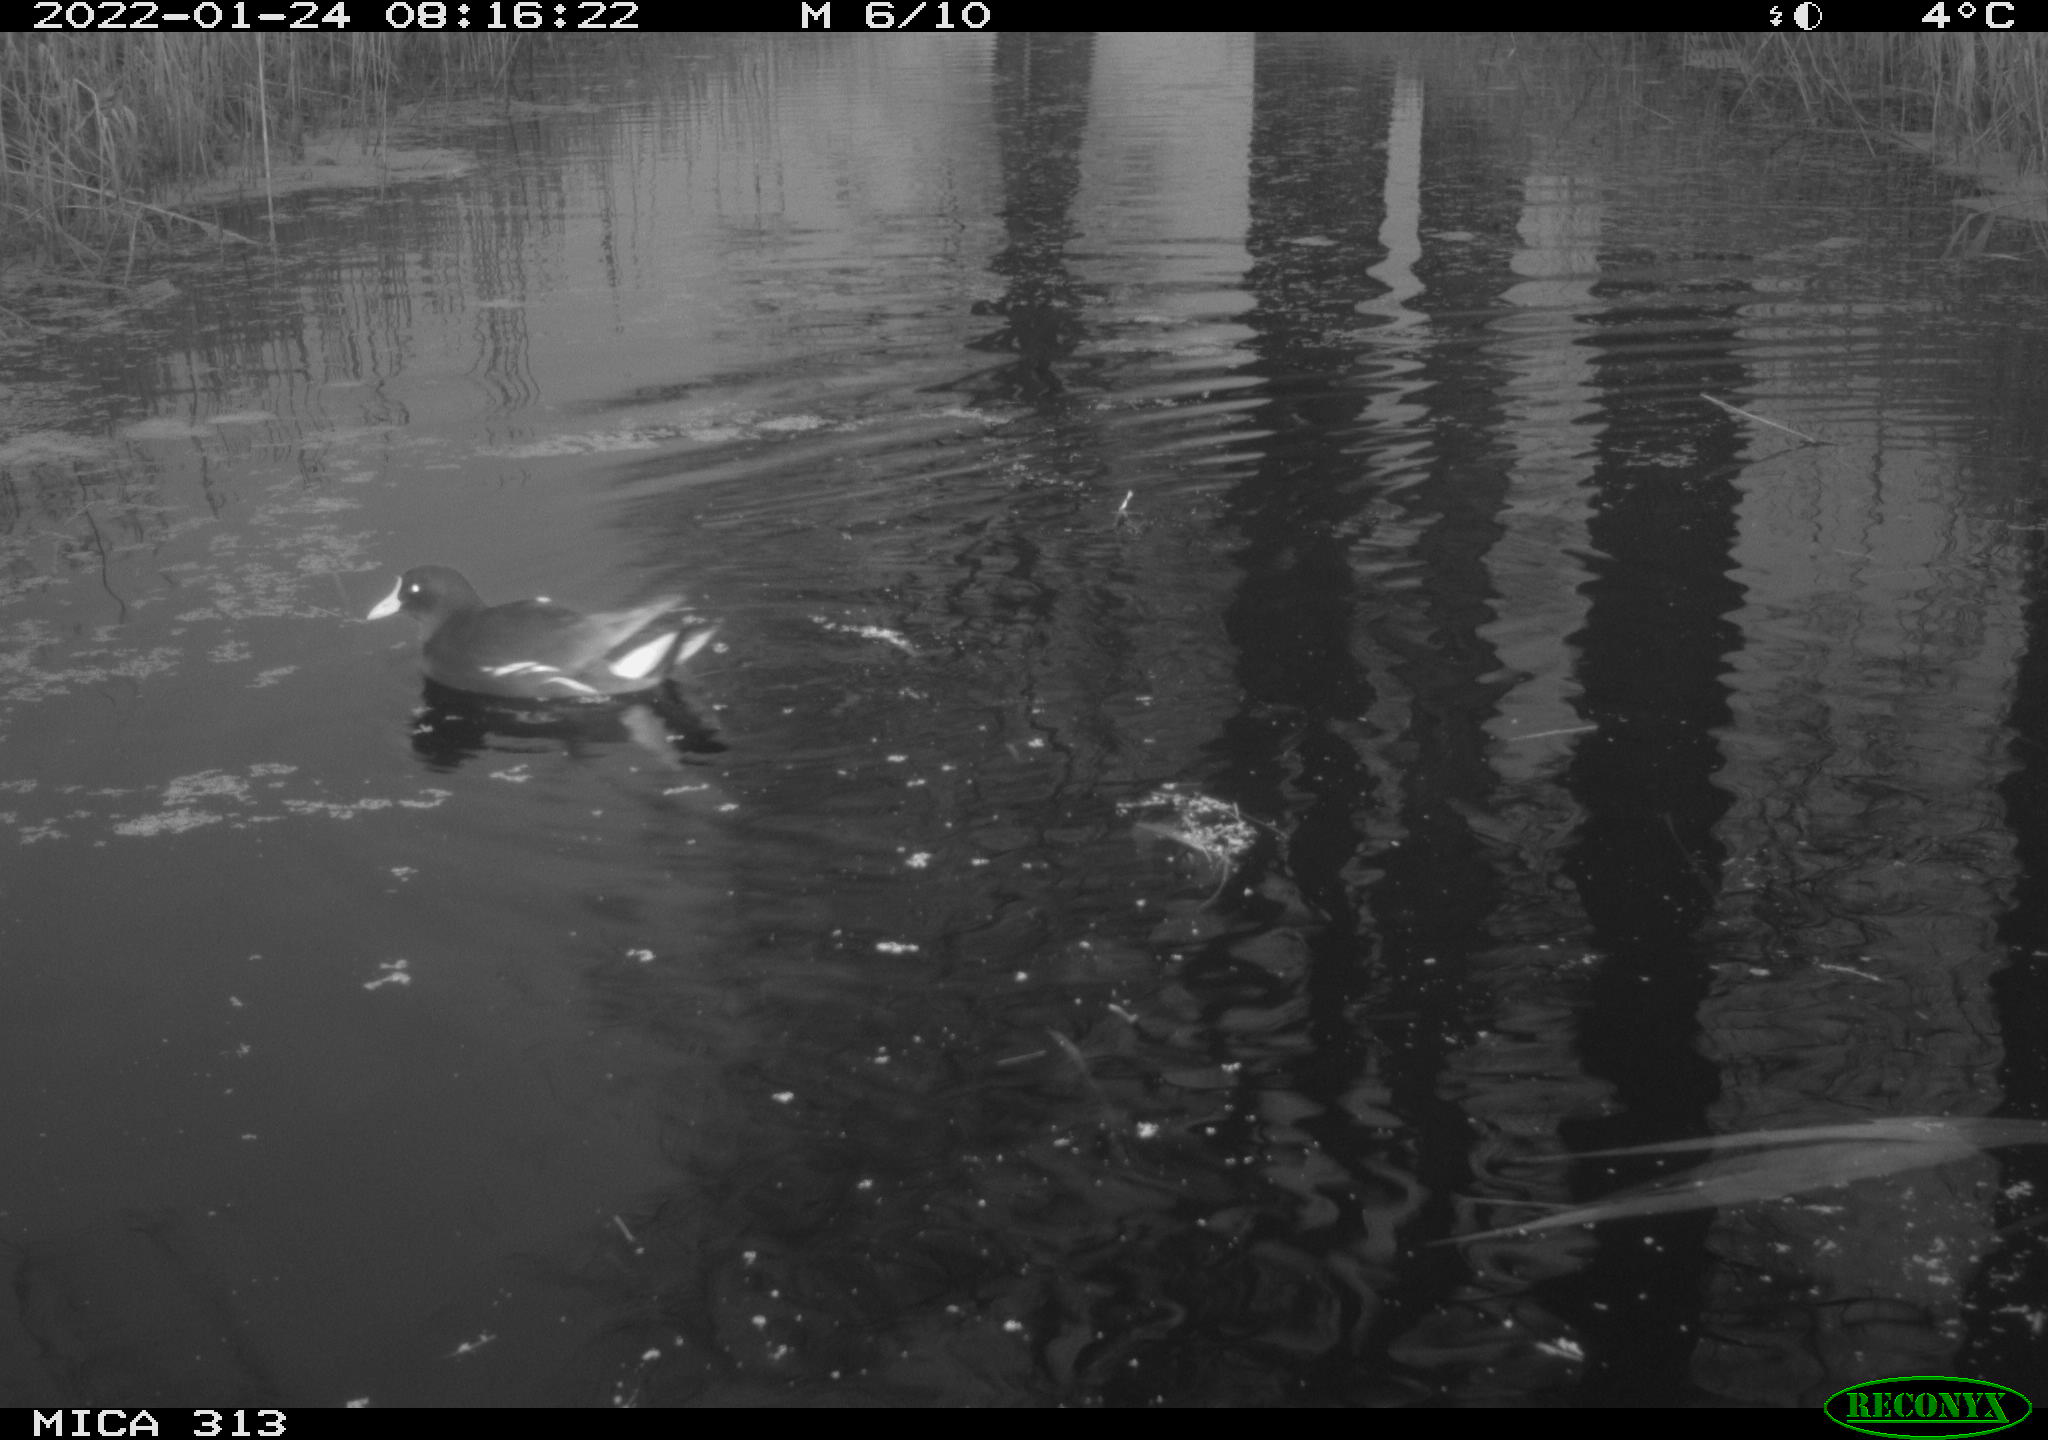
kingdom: Animalia
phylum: Chordata
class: Aves
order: Gruiformes
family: Rallidae
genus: Fulica
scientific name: Fulica atra
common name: Eurasian coot
